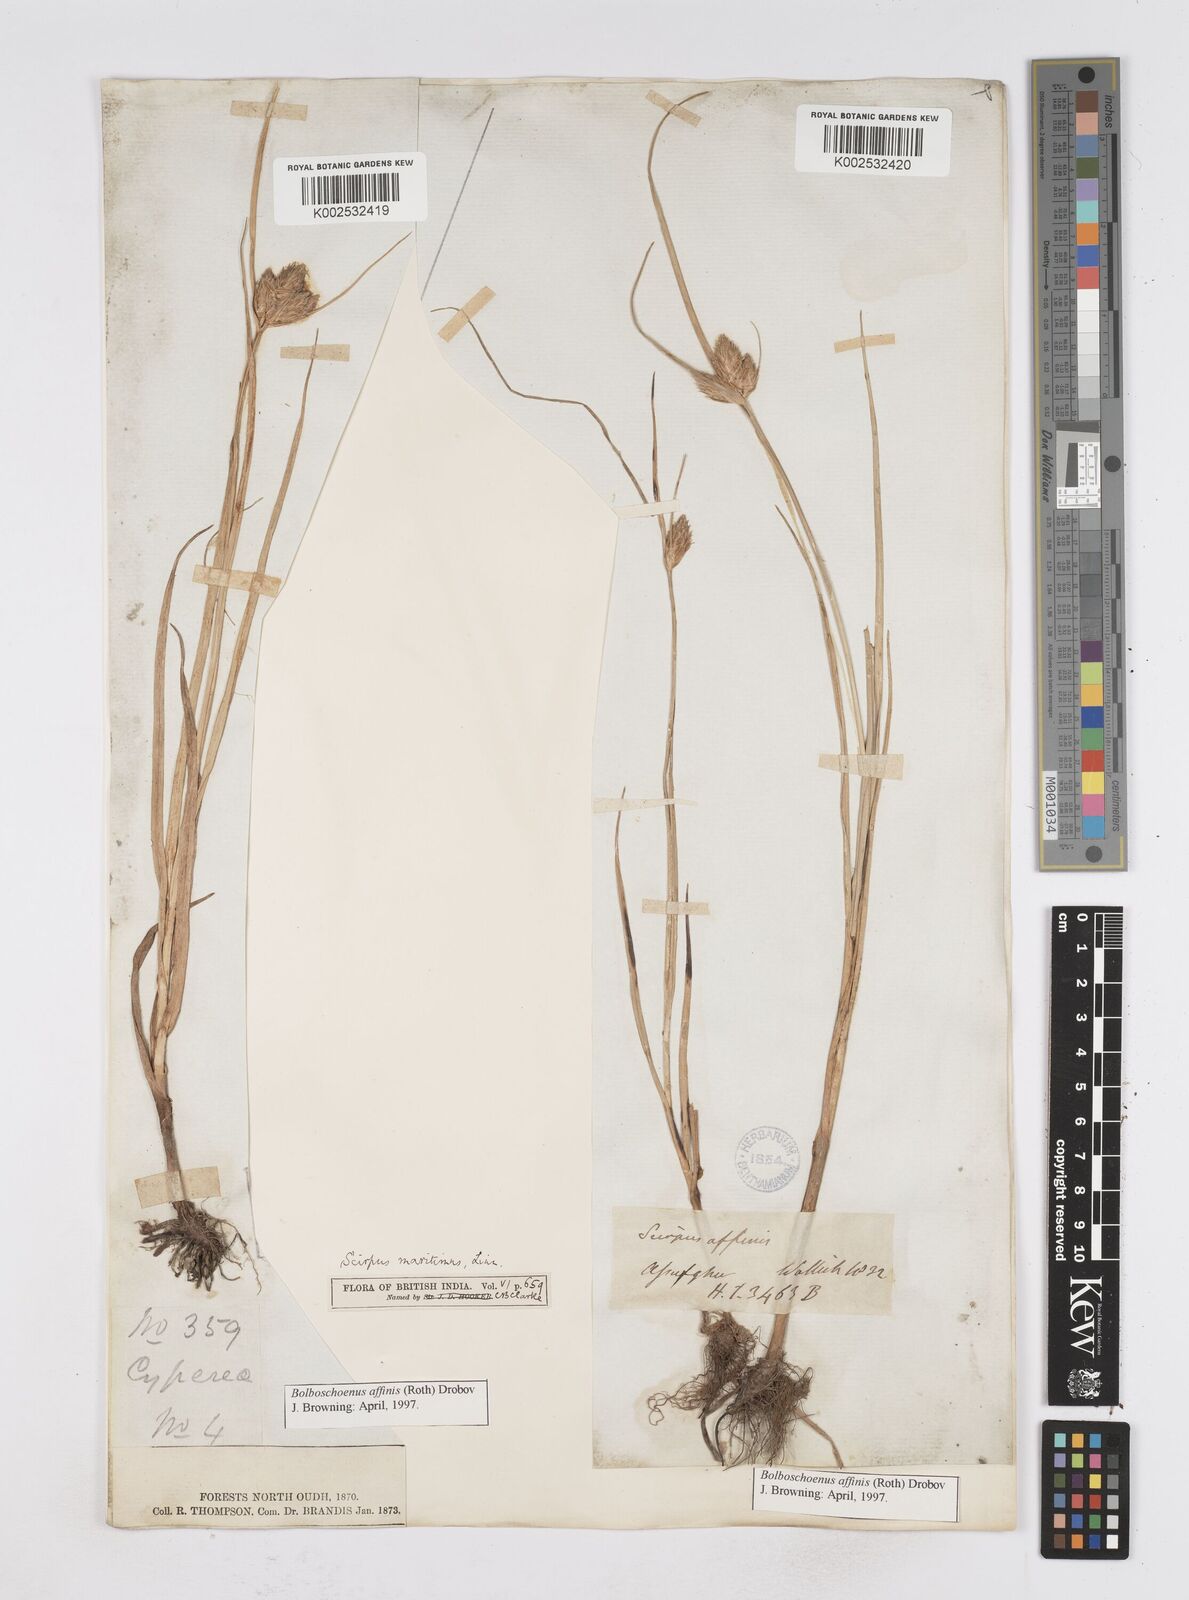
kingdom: Plantae
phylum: Tracheophyta
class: Liliopsida
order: Poales
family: Cyperaceae
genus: Bolboschoenus
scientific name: Bolboschoenus maritimus
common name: Sea club-rush
